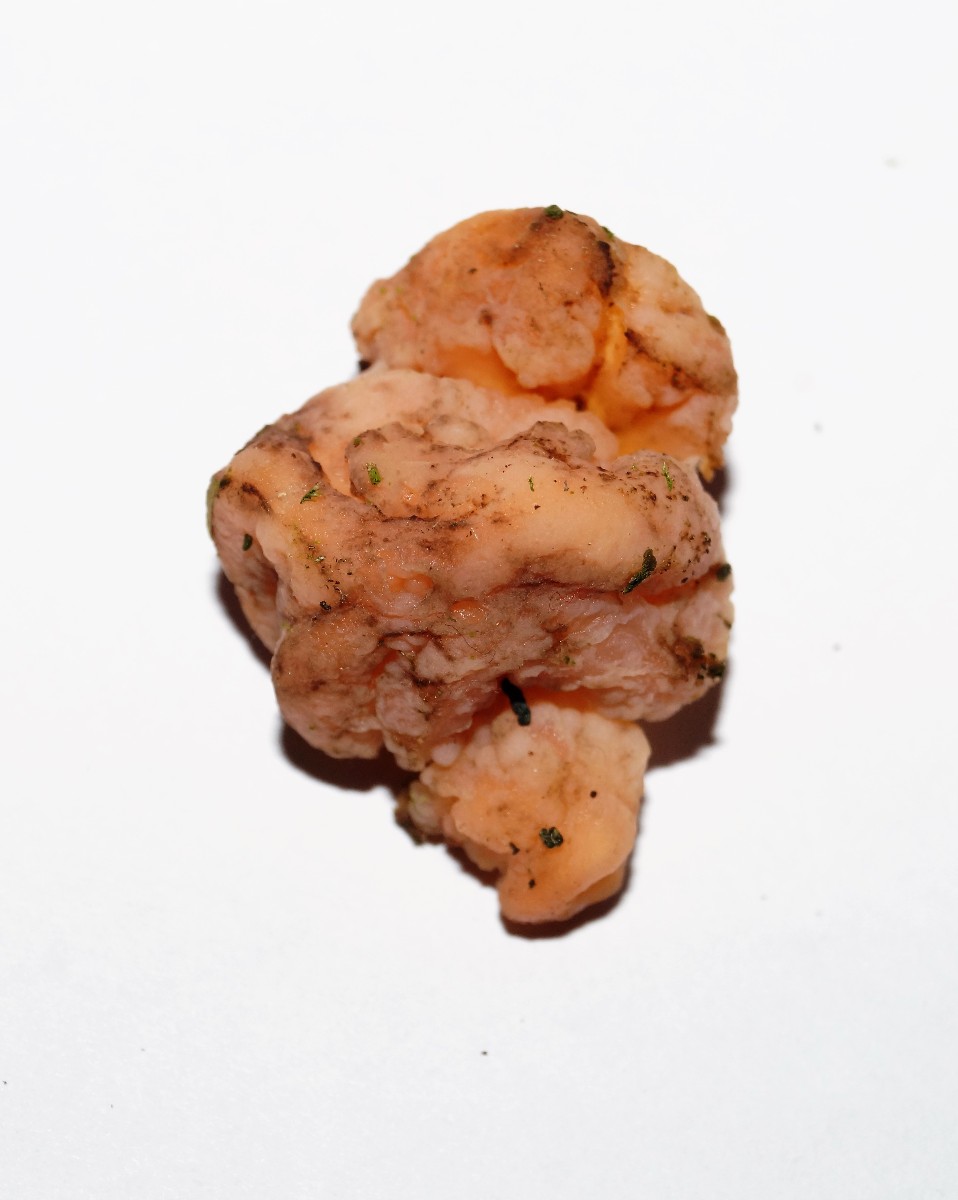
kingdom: Fungi
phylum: Basidiomycota
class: Tremellomycetes
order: Tremellales
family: Naemateliaceae
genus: Naematelia
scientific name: Naematelia encephala
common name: fyrre-bævresvamp
